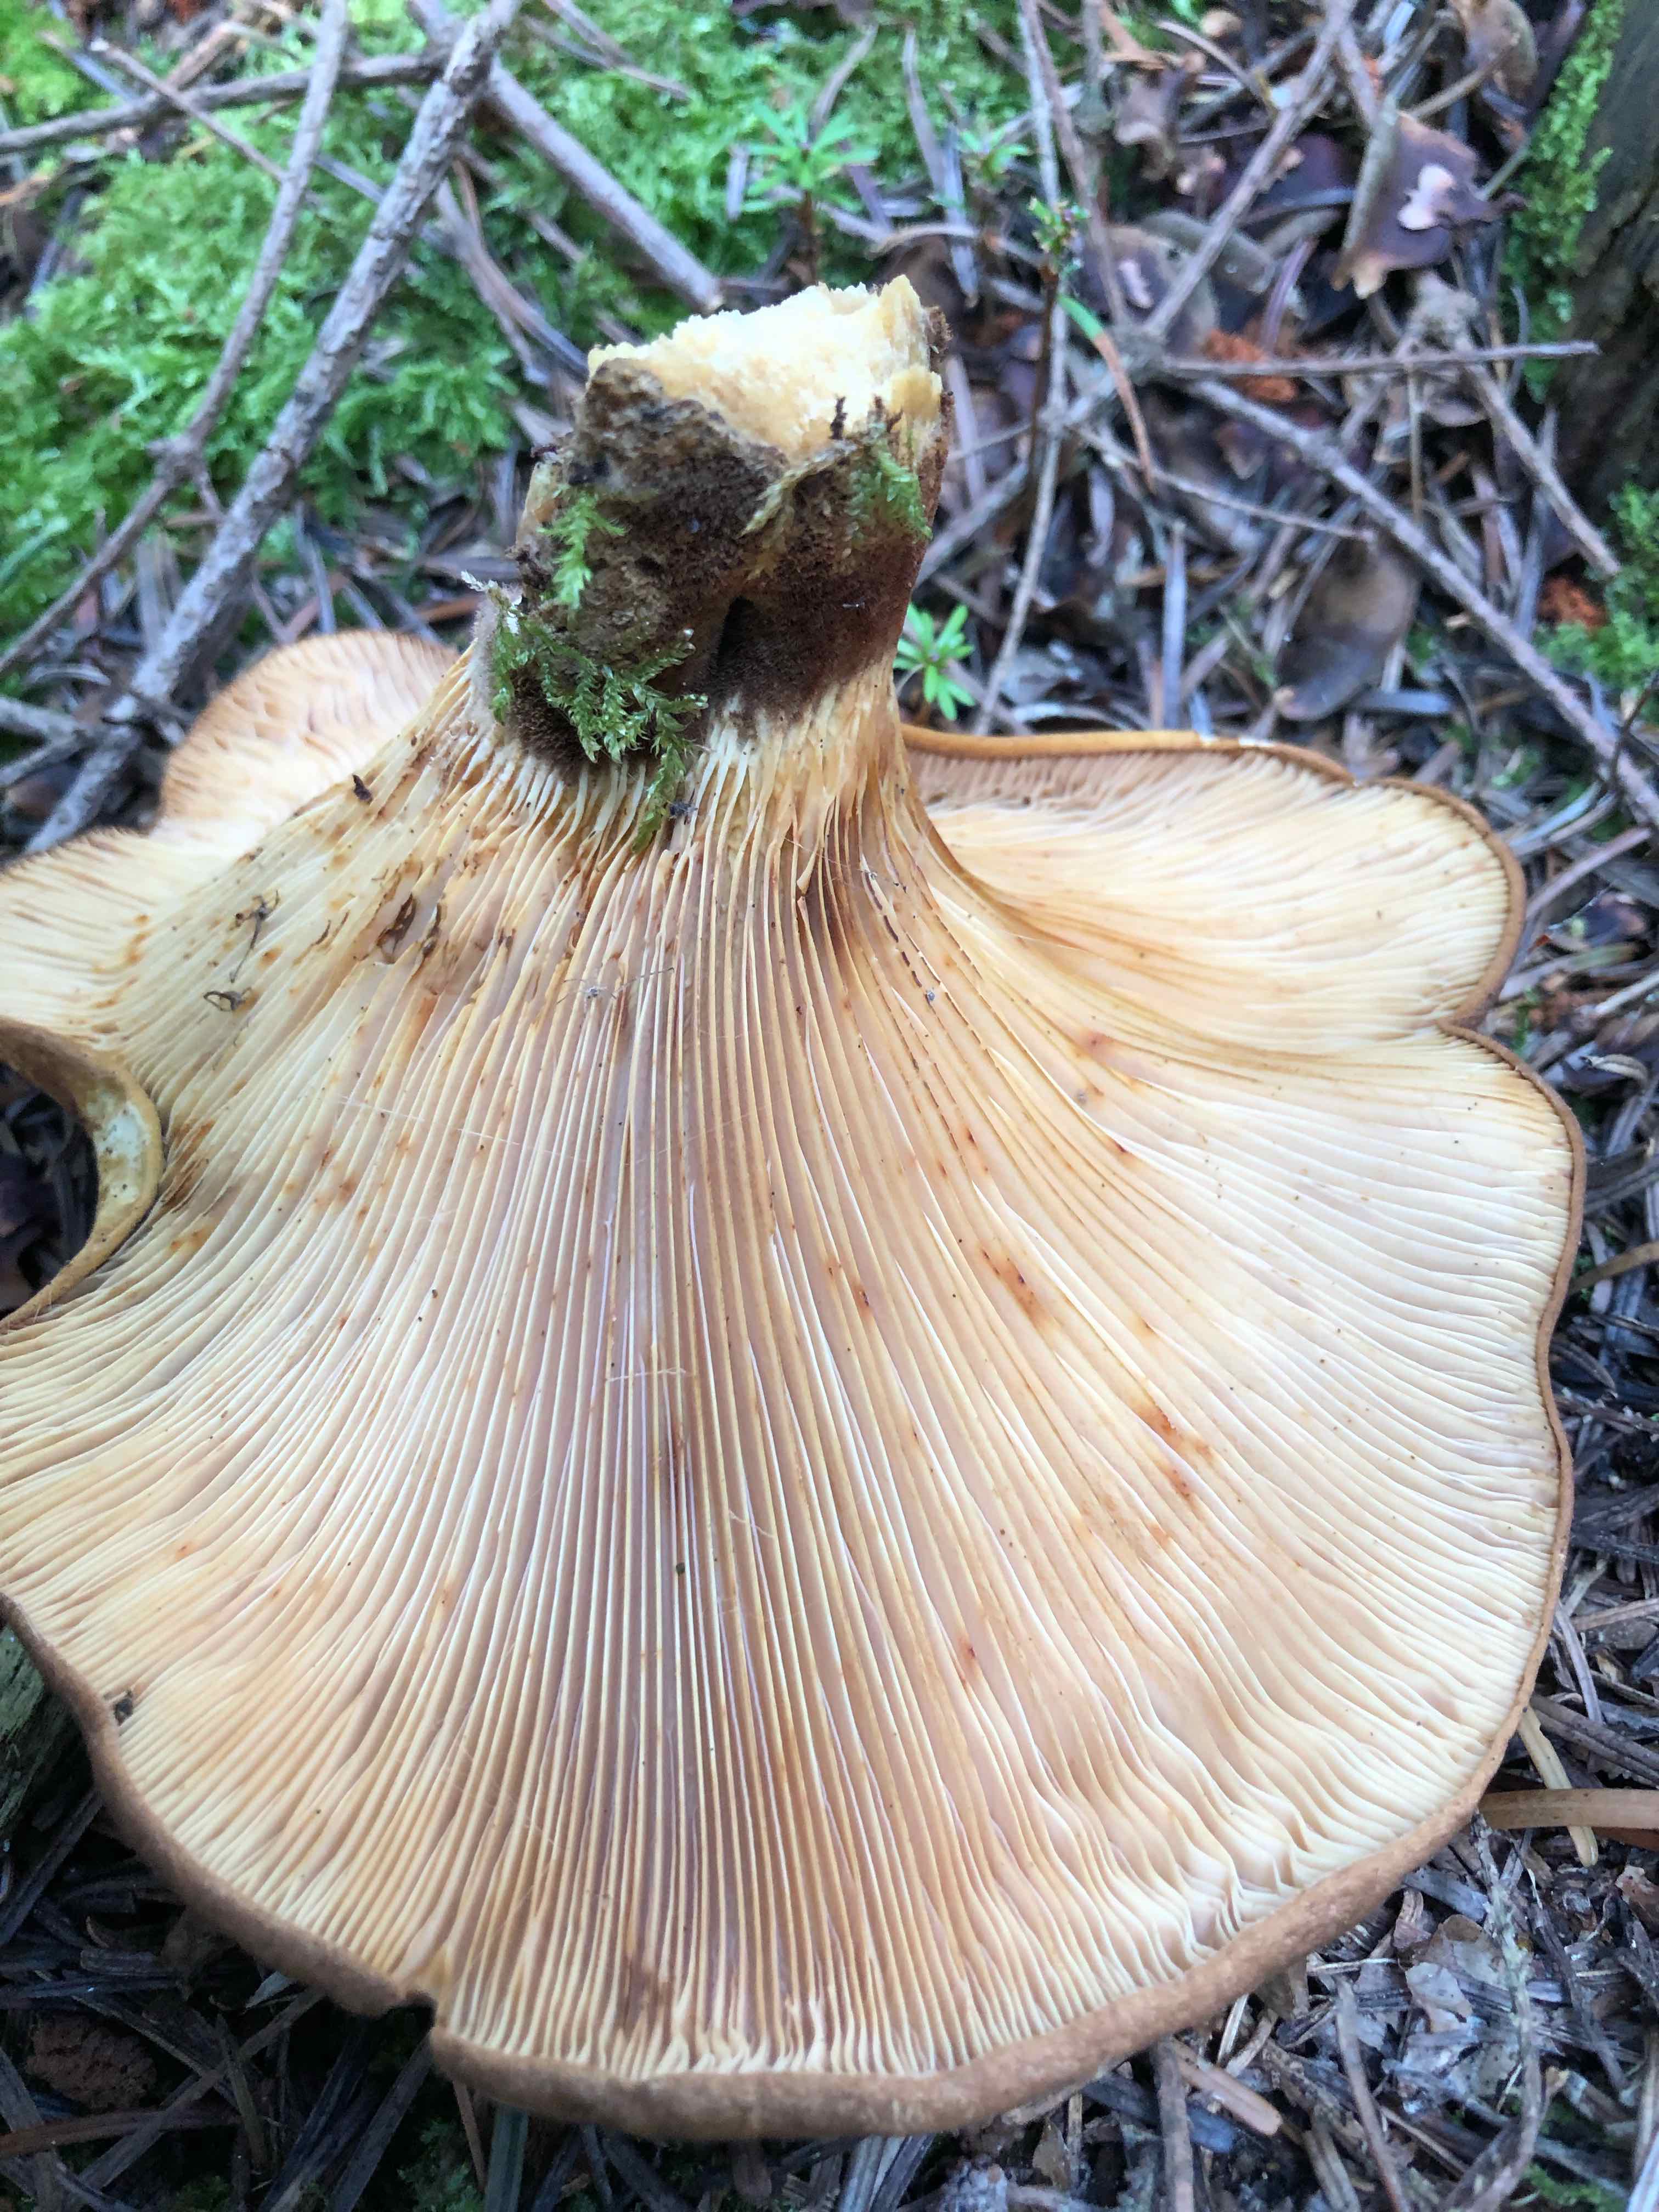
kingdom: Fungi
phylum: Basidiomycota
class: Agaricomycetes
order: Boletales
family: Tapinellaceae
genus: Tapinella
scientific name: Tapinella atrotomentosa
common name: sortfiltet viftesvamp
